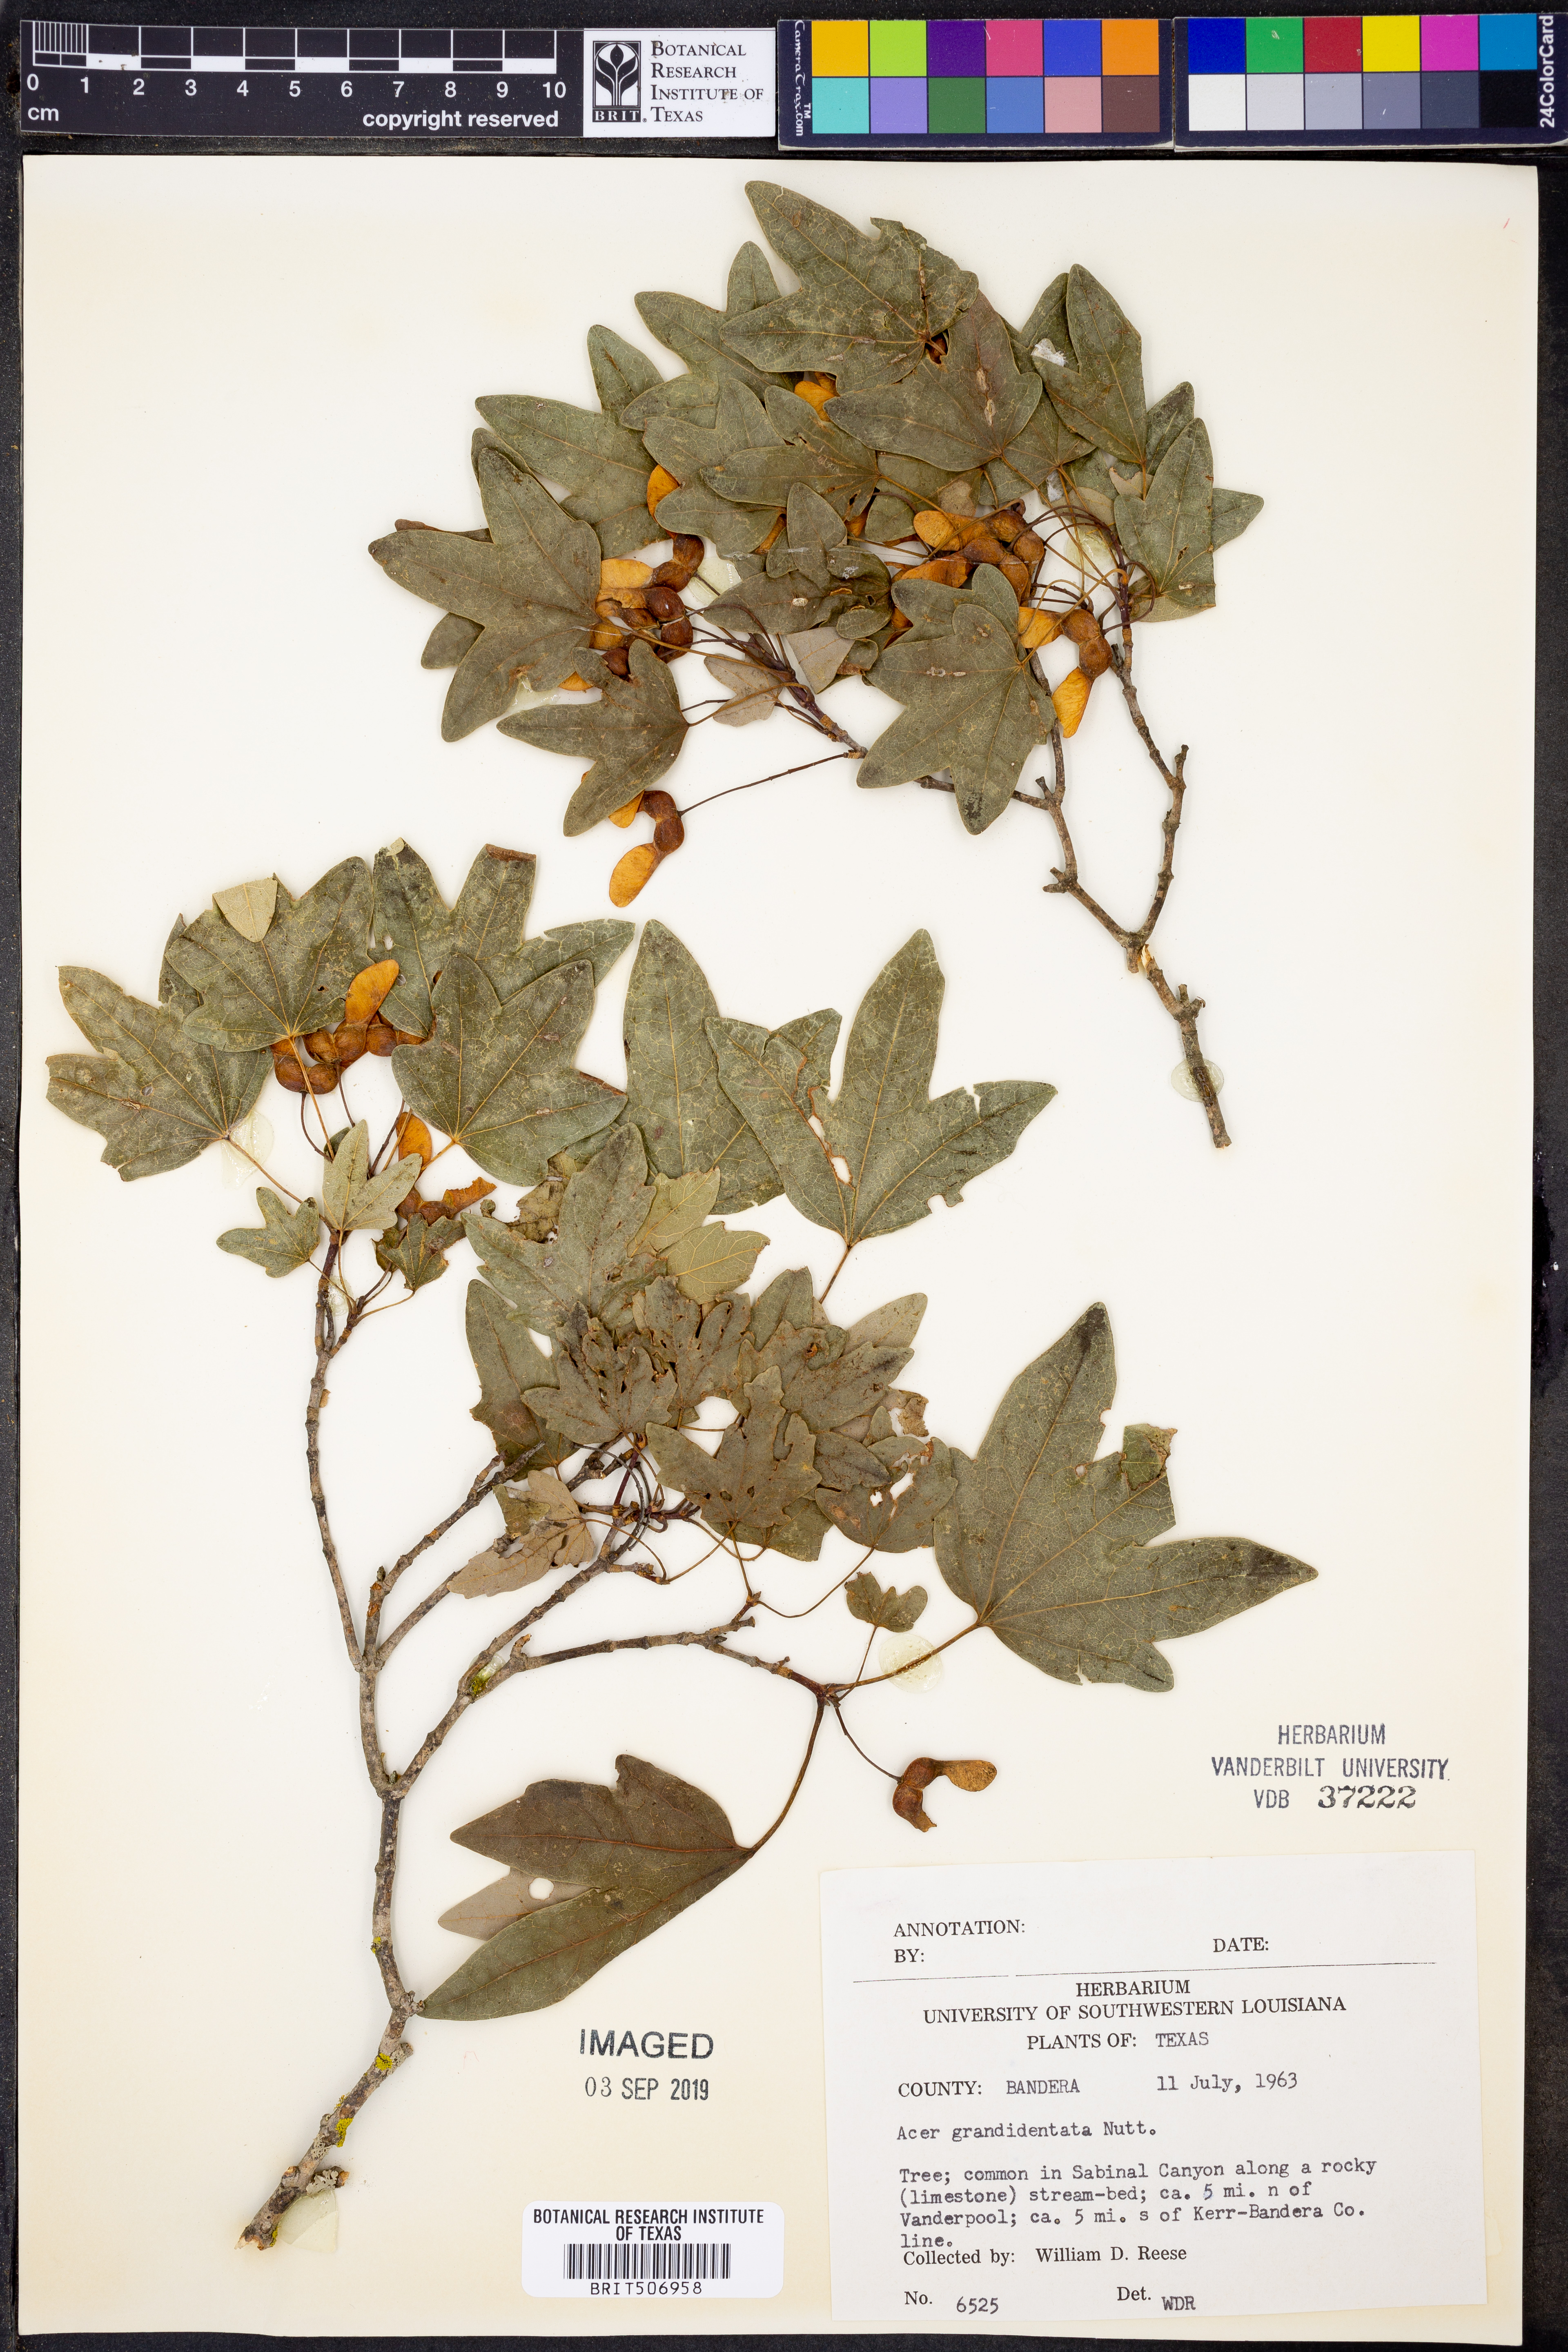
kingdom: Plantae
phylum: Tracheophyta
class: Magnoliopsida
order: Sapindales
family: Sapindaceae
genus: Acer
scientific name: Acer grandidentatum
